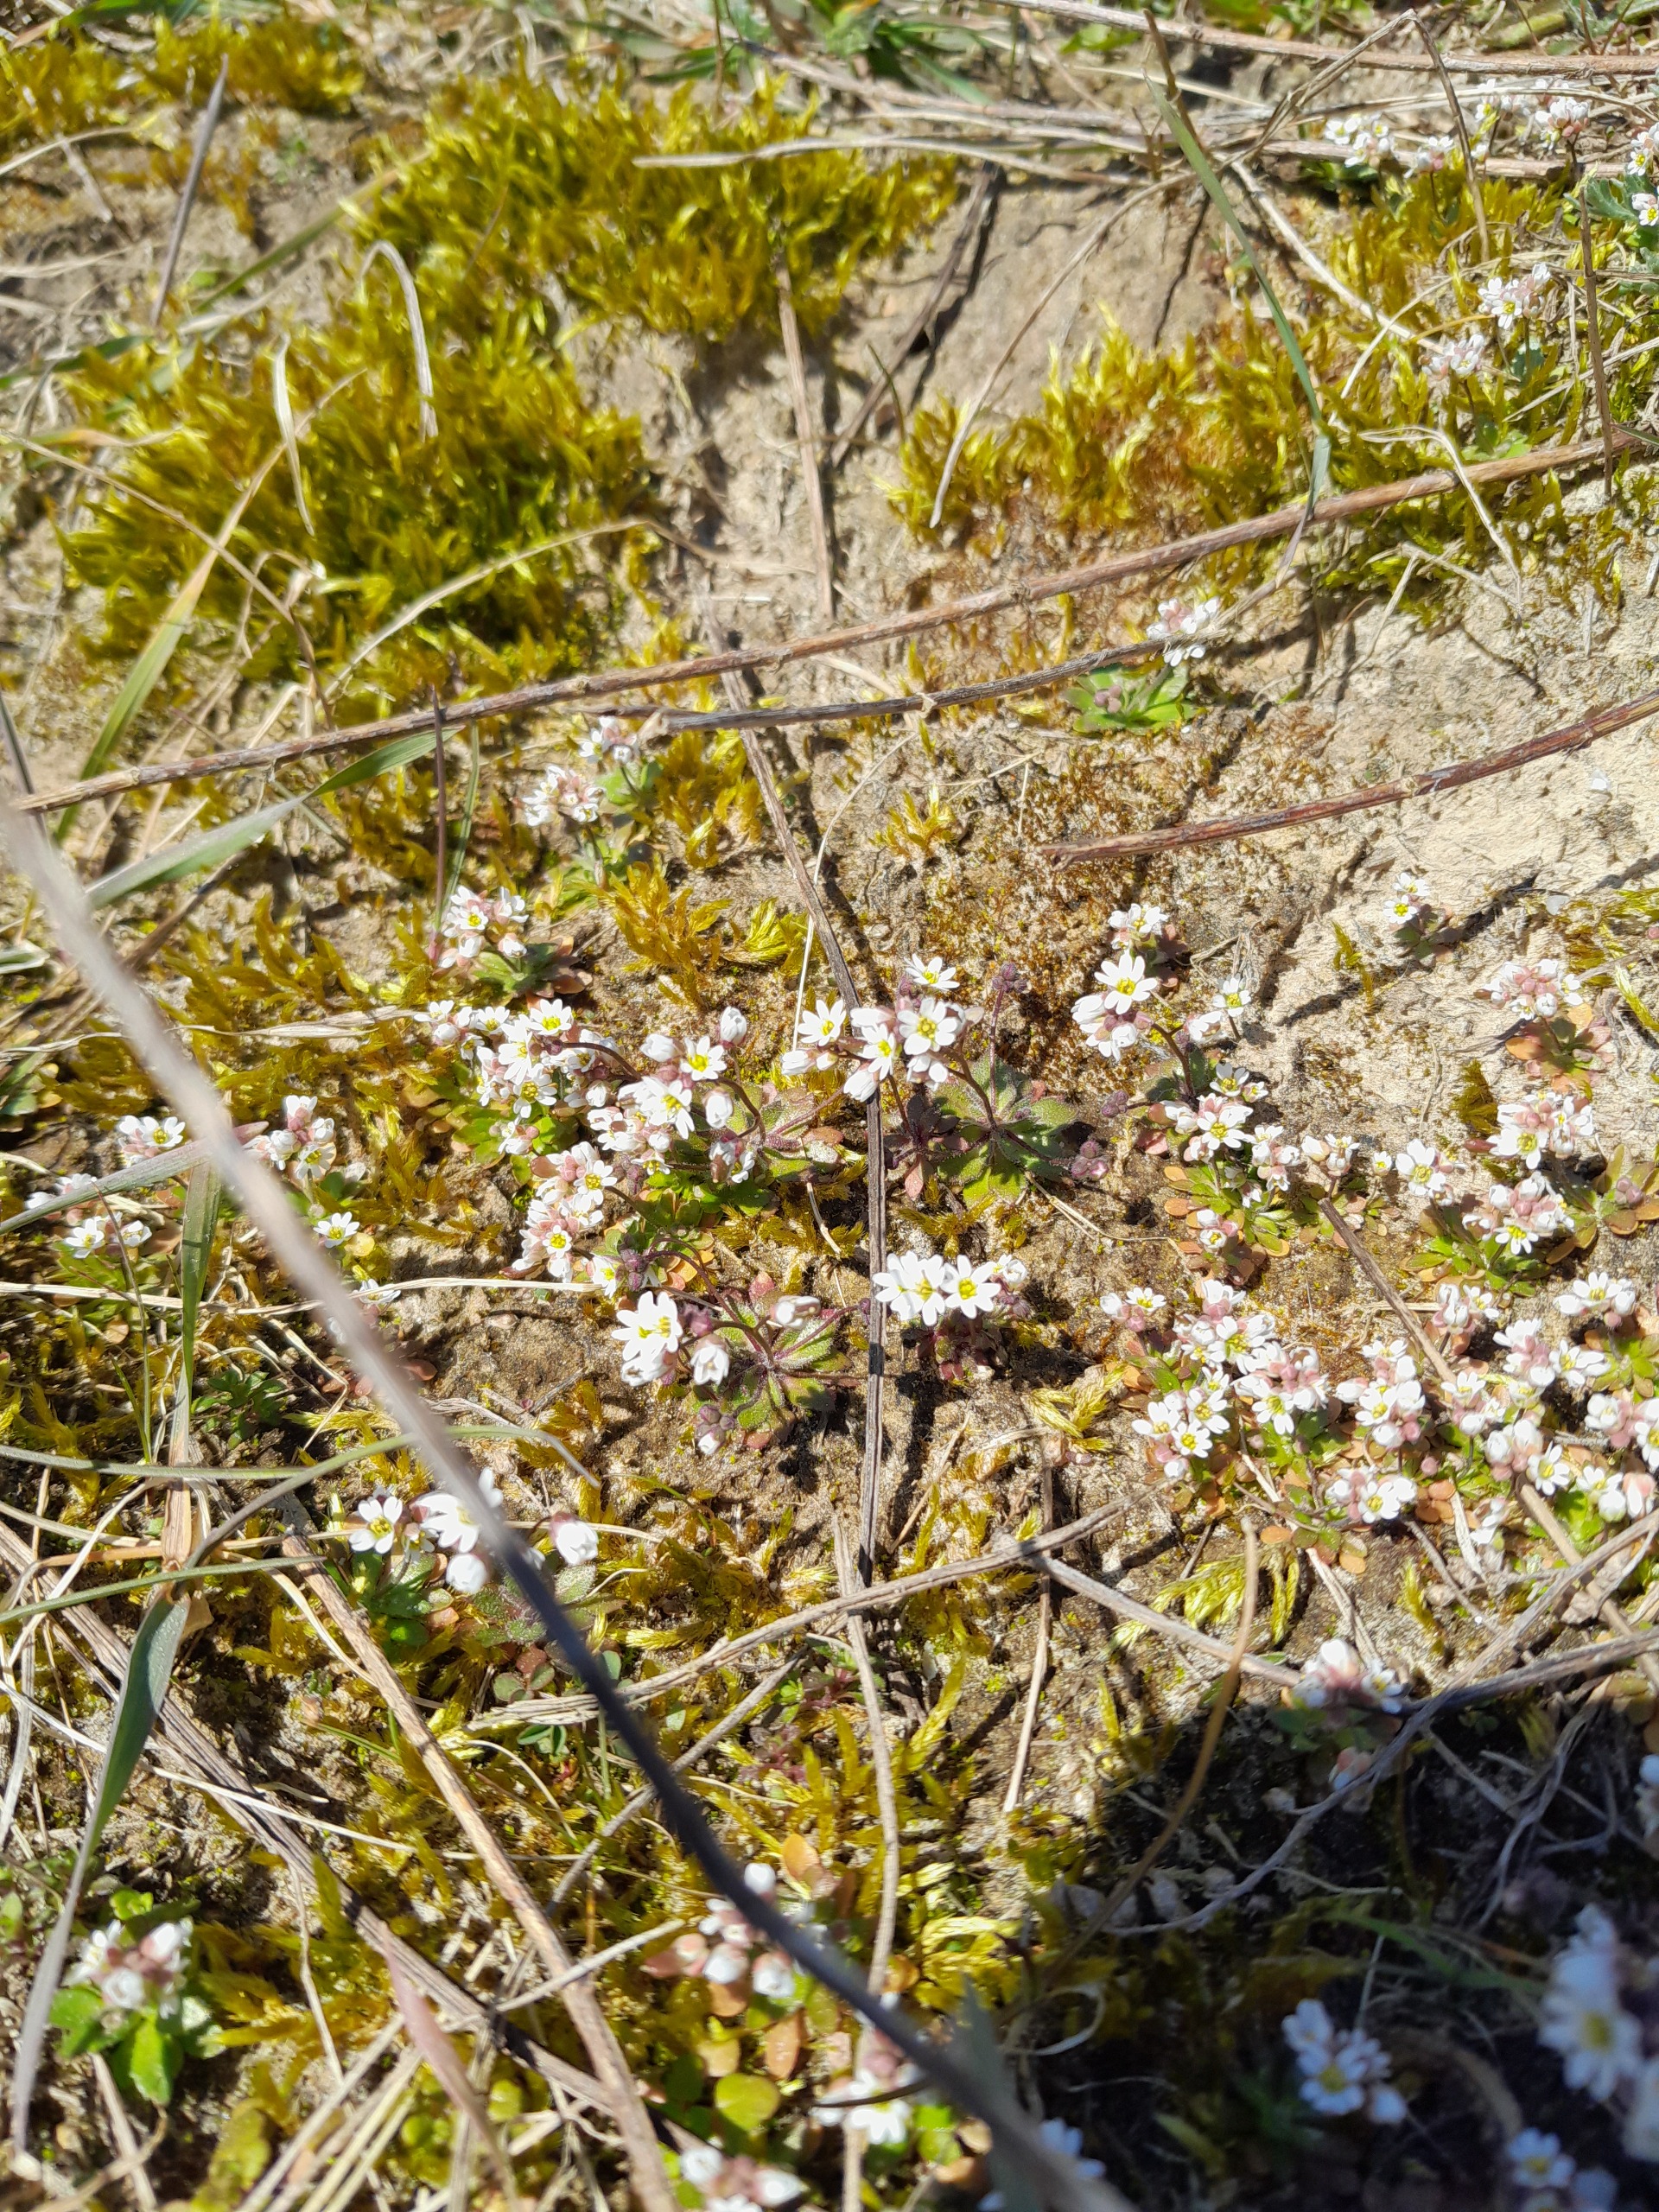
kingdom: Plantae
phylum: Tracheophyta
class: Magnoliopsida
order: Brassicales
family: Brassicaceae
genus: Draba
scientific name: Draba verna
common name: Vår-gæslingeblomst
